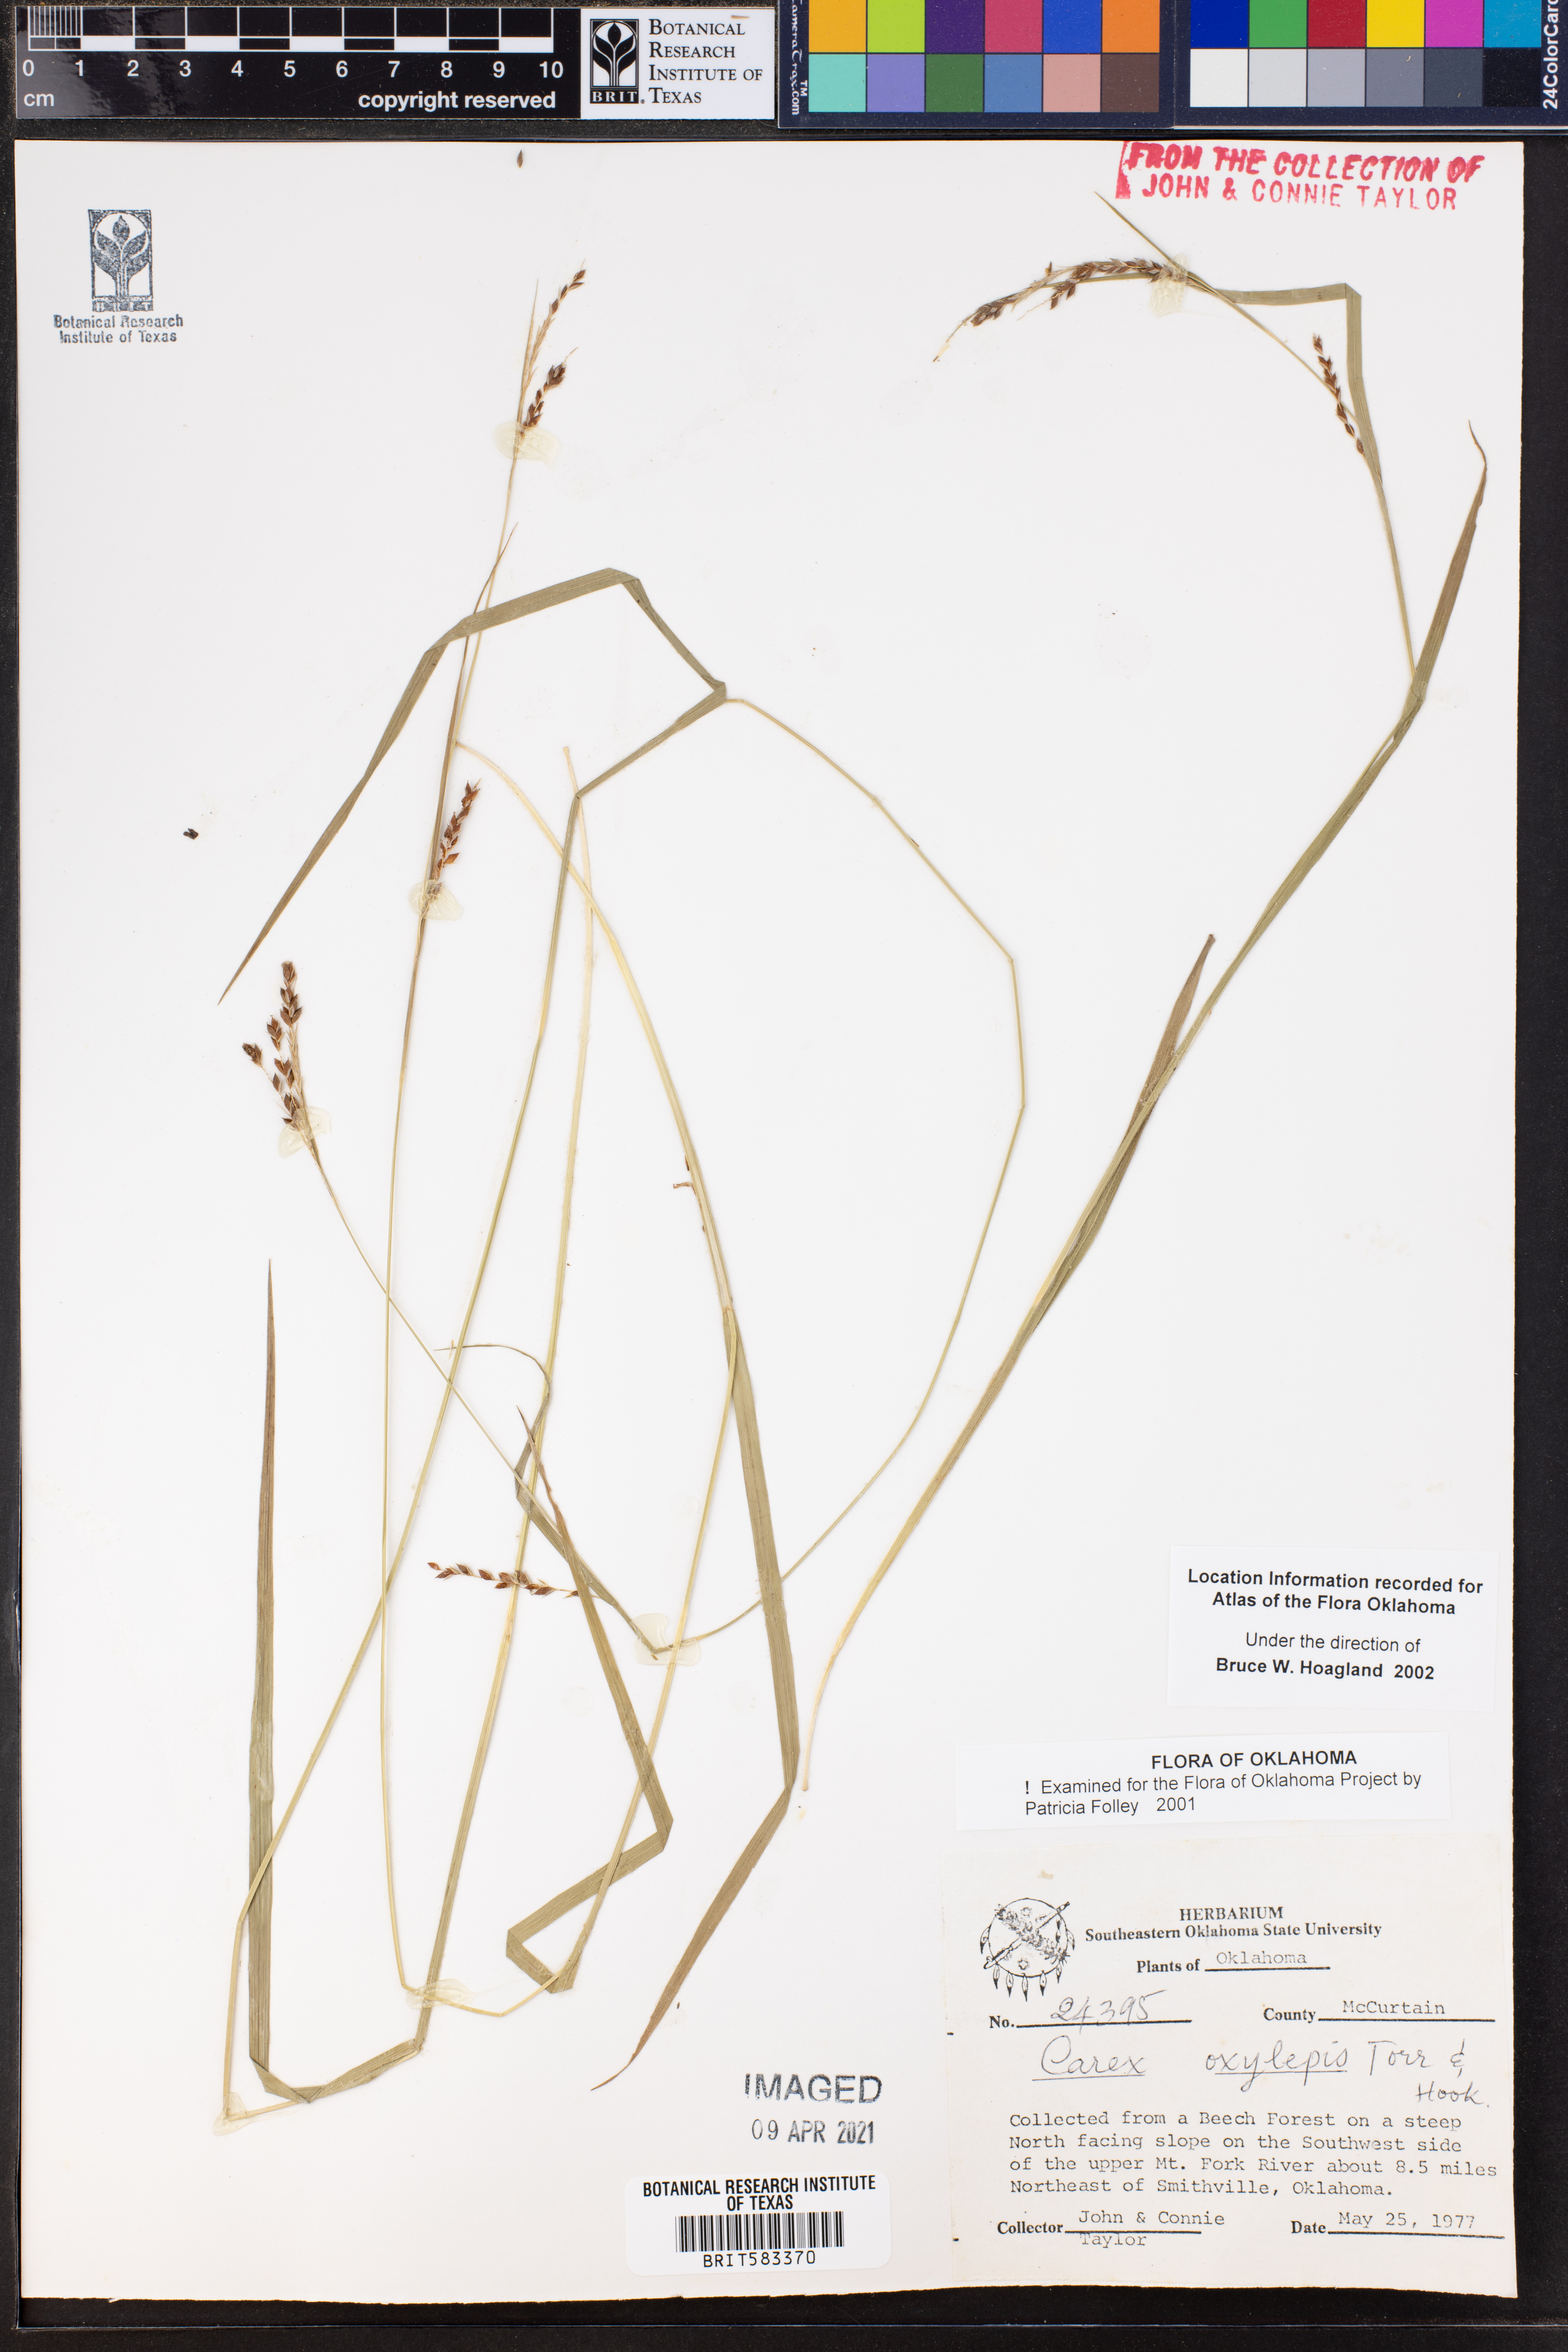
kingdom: Plantae
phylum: Tracheophyta
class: Liliopsida
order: Poales
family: Cyperaceae
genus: Carex
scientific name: Carex oxyandra
